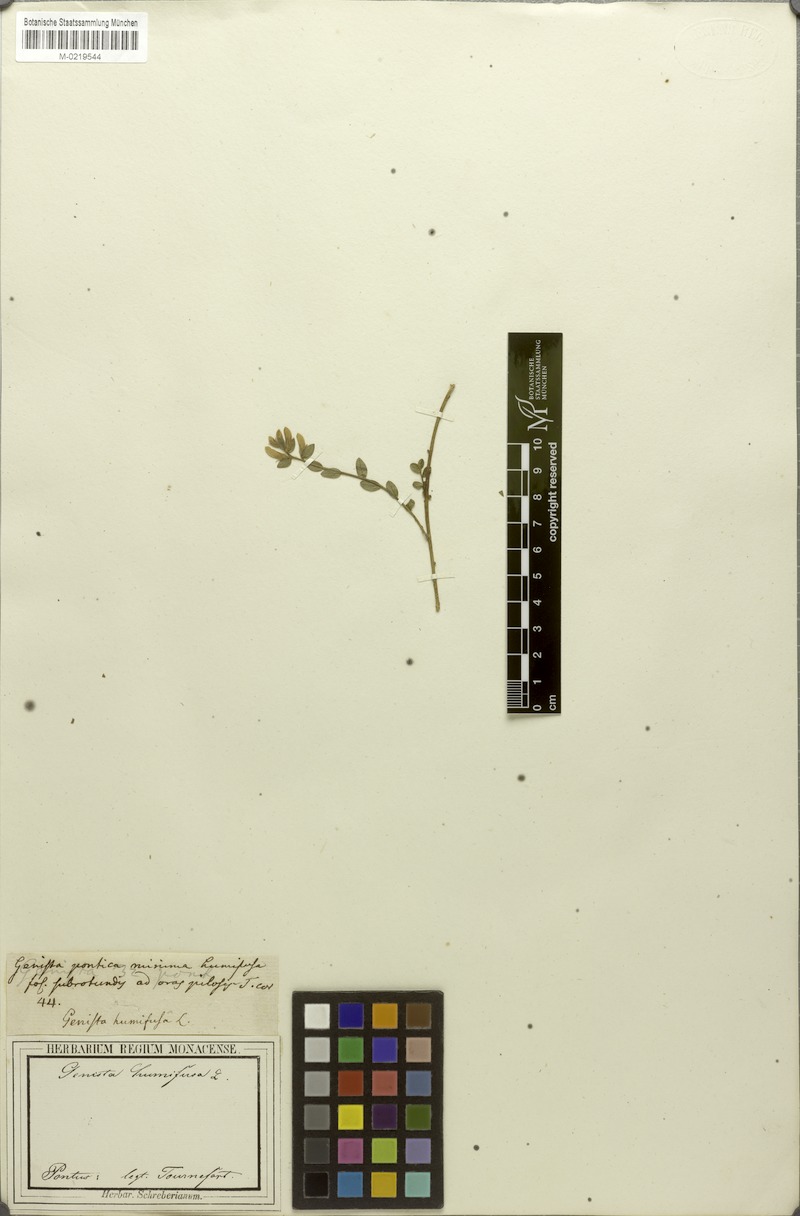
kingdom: Plantae
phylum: Tracheophyta
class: Magnoliopsida
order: Fabales
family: Fabaceae
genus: Genista
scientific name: Genista tinctoria
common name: Dyer's greenweed
